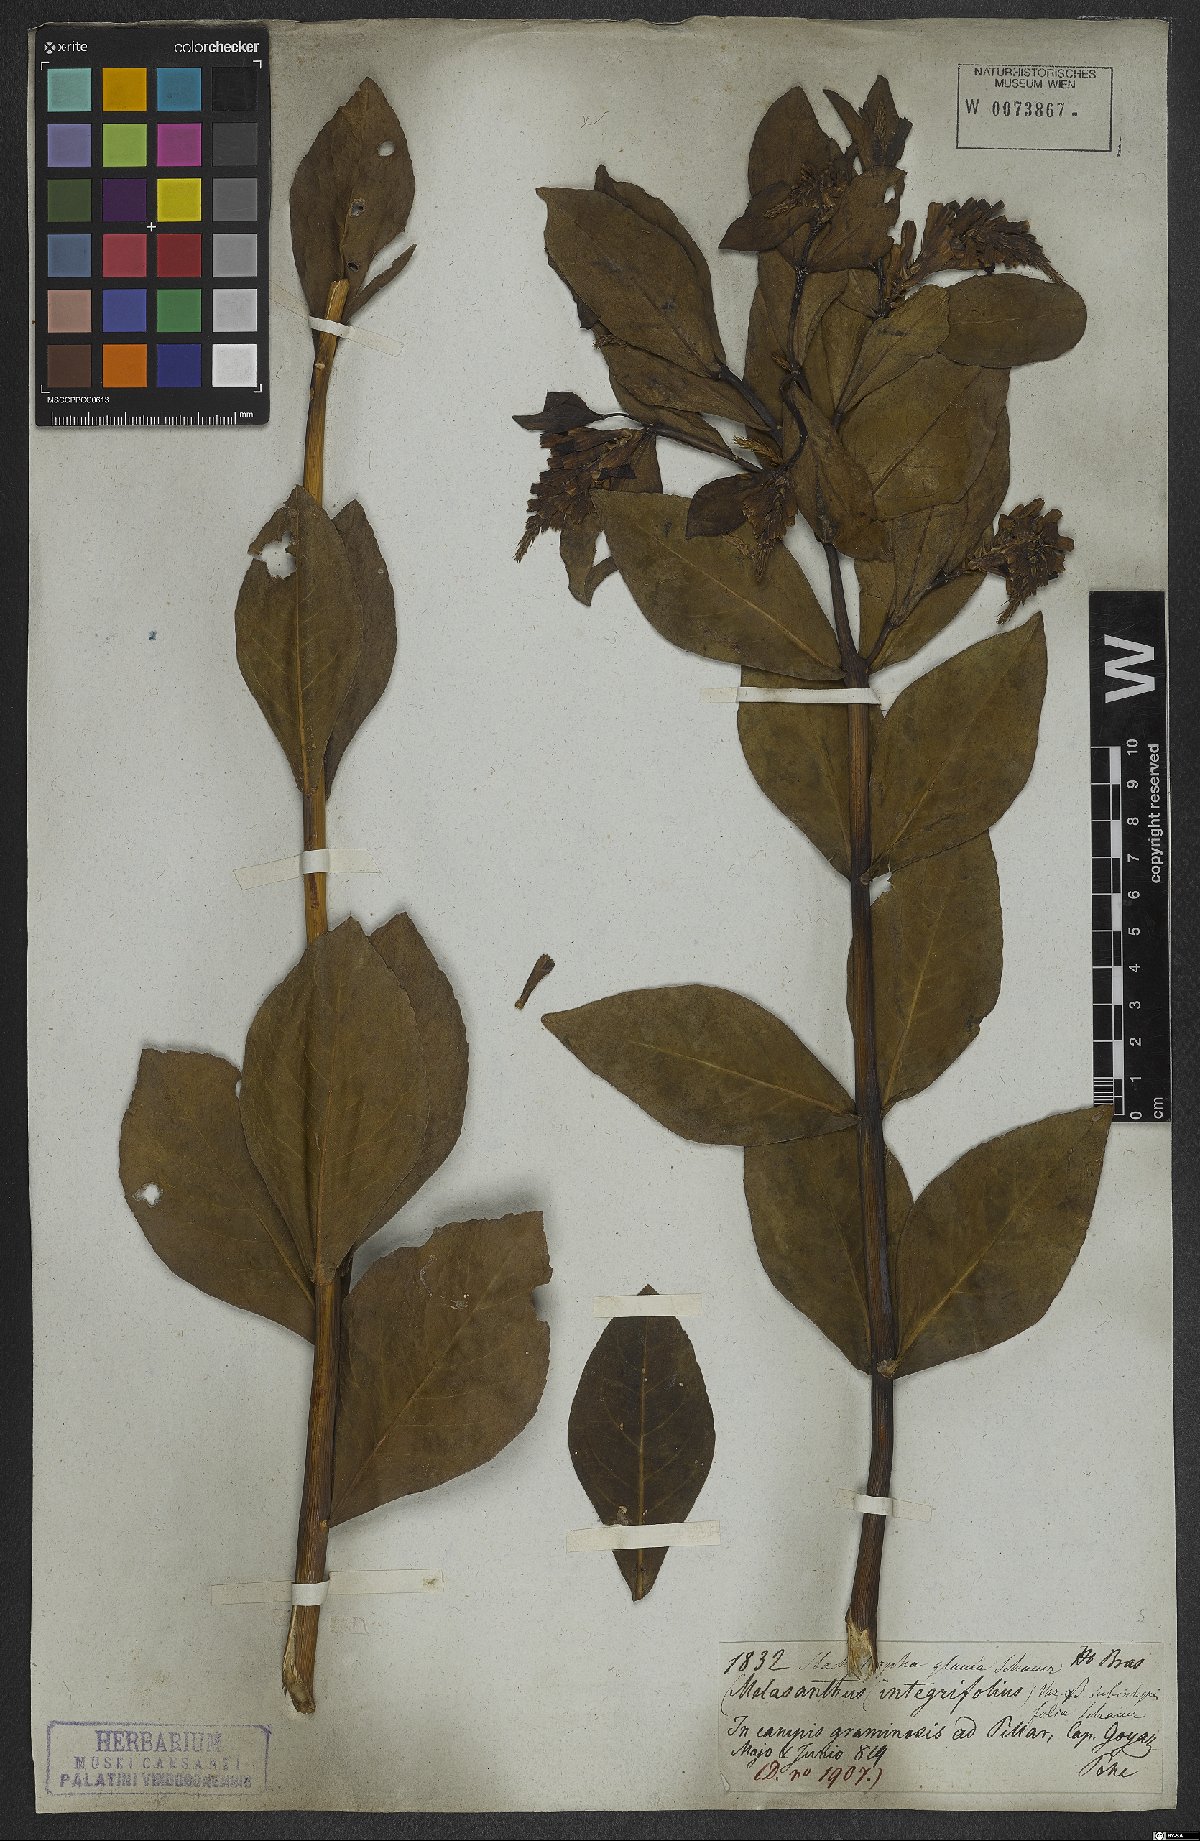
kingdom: Plantae
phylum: Tracheophyta
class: Magnoliopsida
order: Lamiales
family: Verbenaceae
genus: Stachytarpheta
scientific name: Stachytarpheta integrifolia
